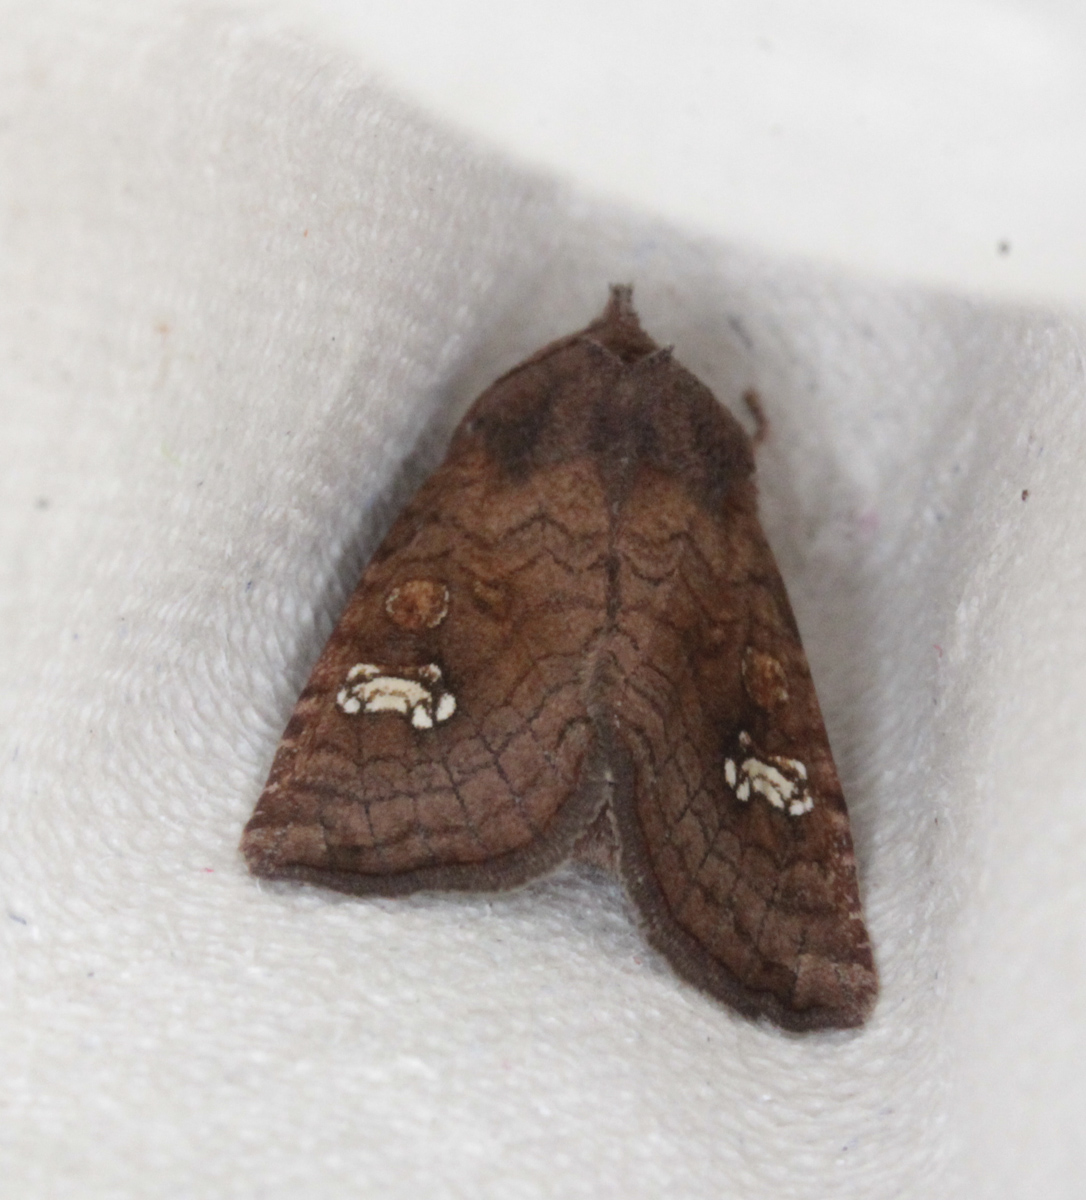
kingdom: Animalia
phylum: Arthropoda
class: Insecta
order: Lepidoptera
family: Noctuidae
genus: Amphipoea
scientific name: Amphipoea fucosa
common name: Saltern ear
